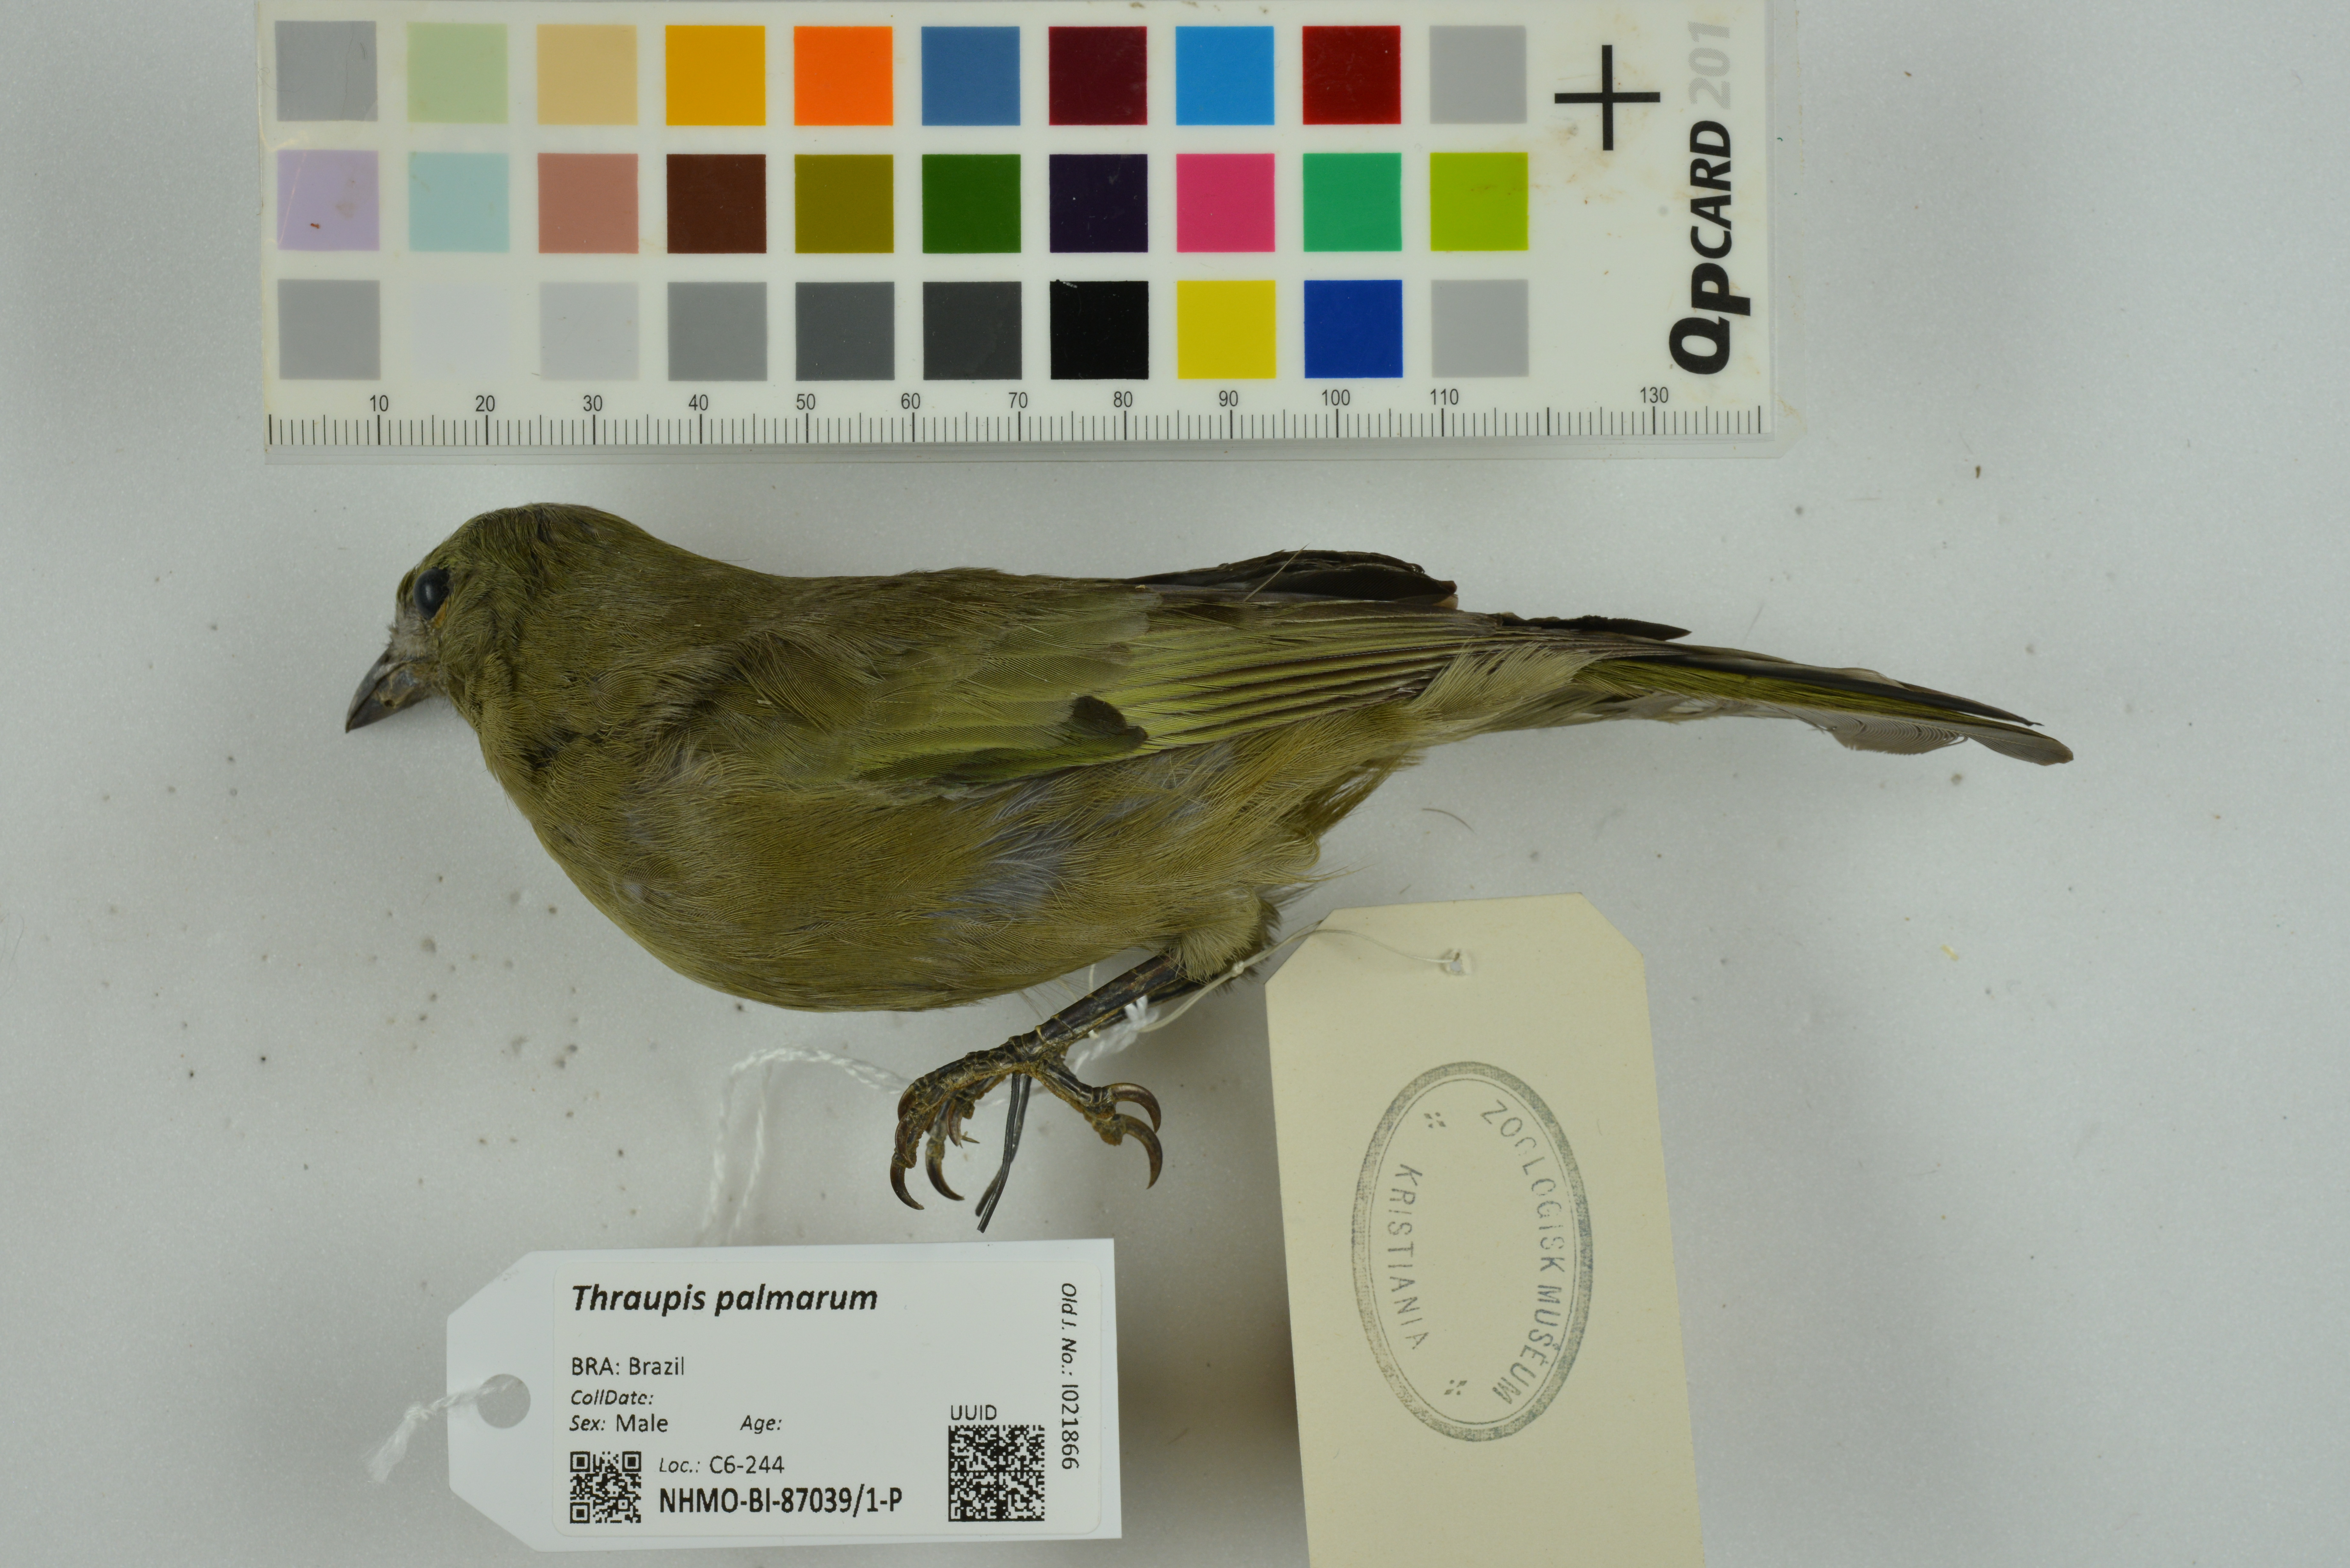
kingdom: Animalia
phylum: Chordata
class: Aves
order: Passeriformes
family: Thraupidae
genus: Thraupis
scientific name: Thraupis palmarum
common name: Palm tanager
